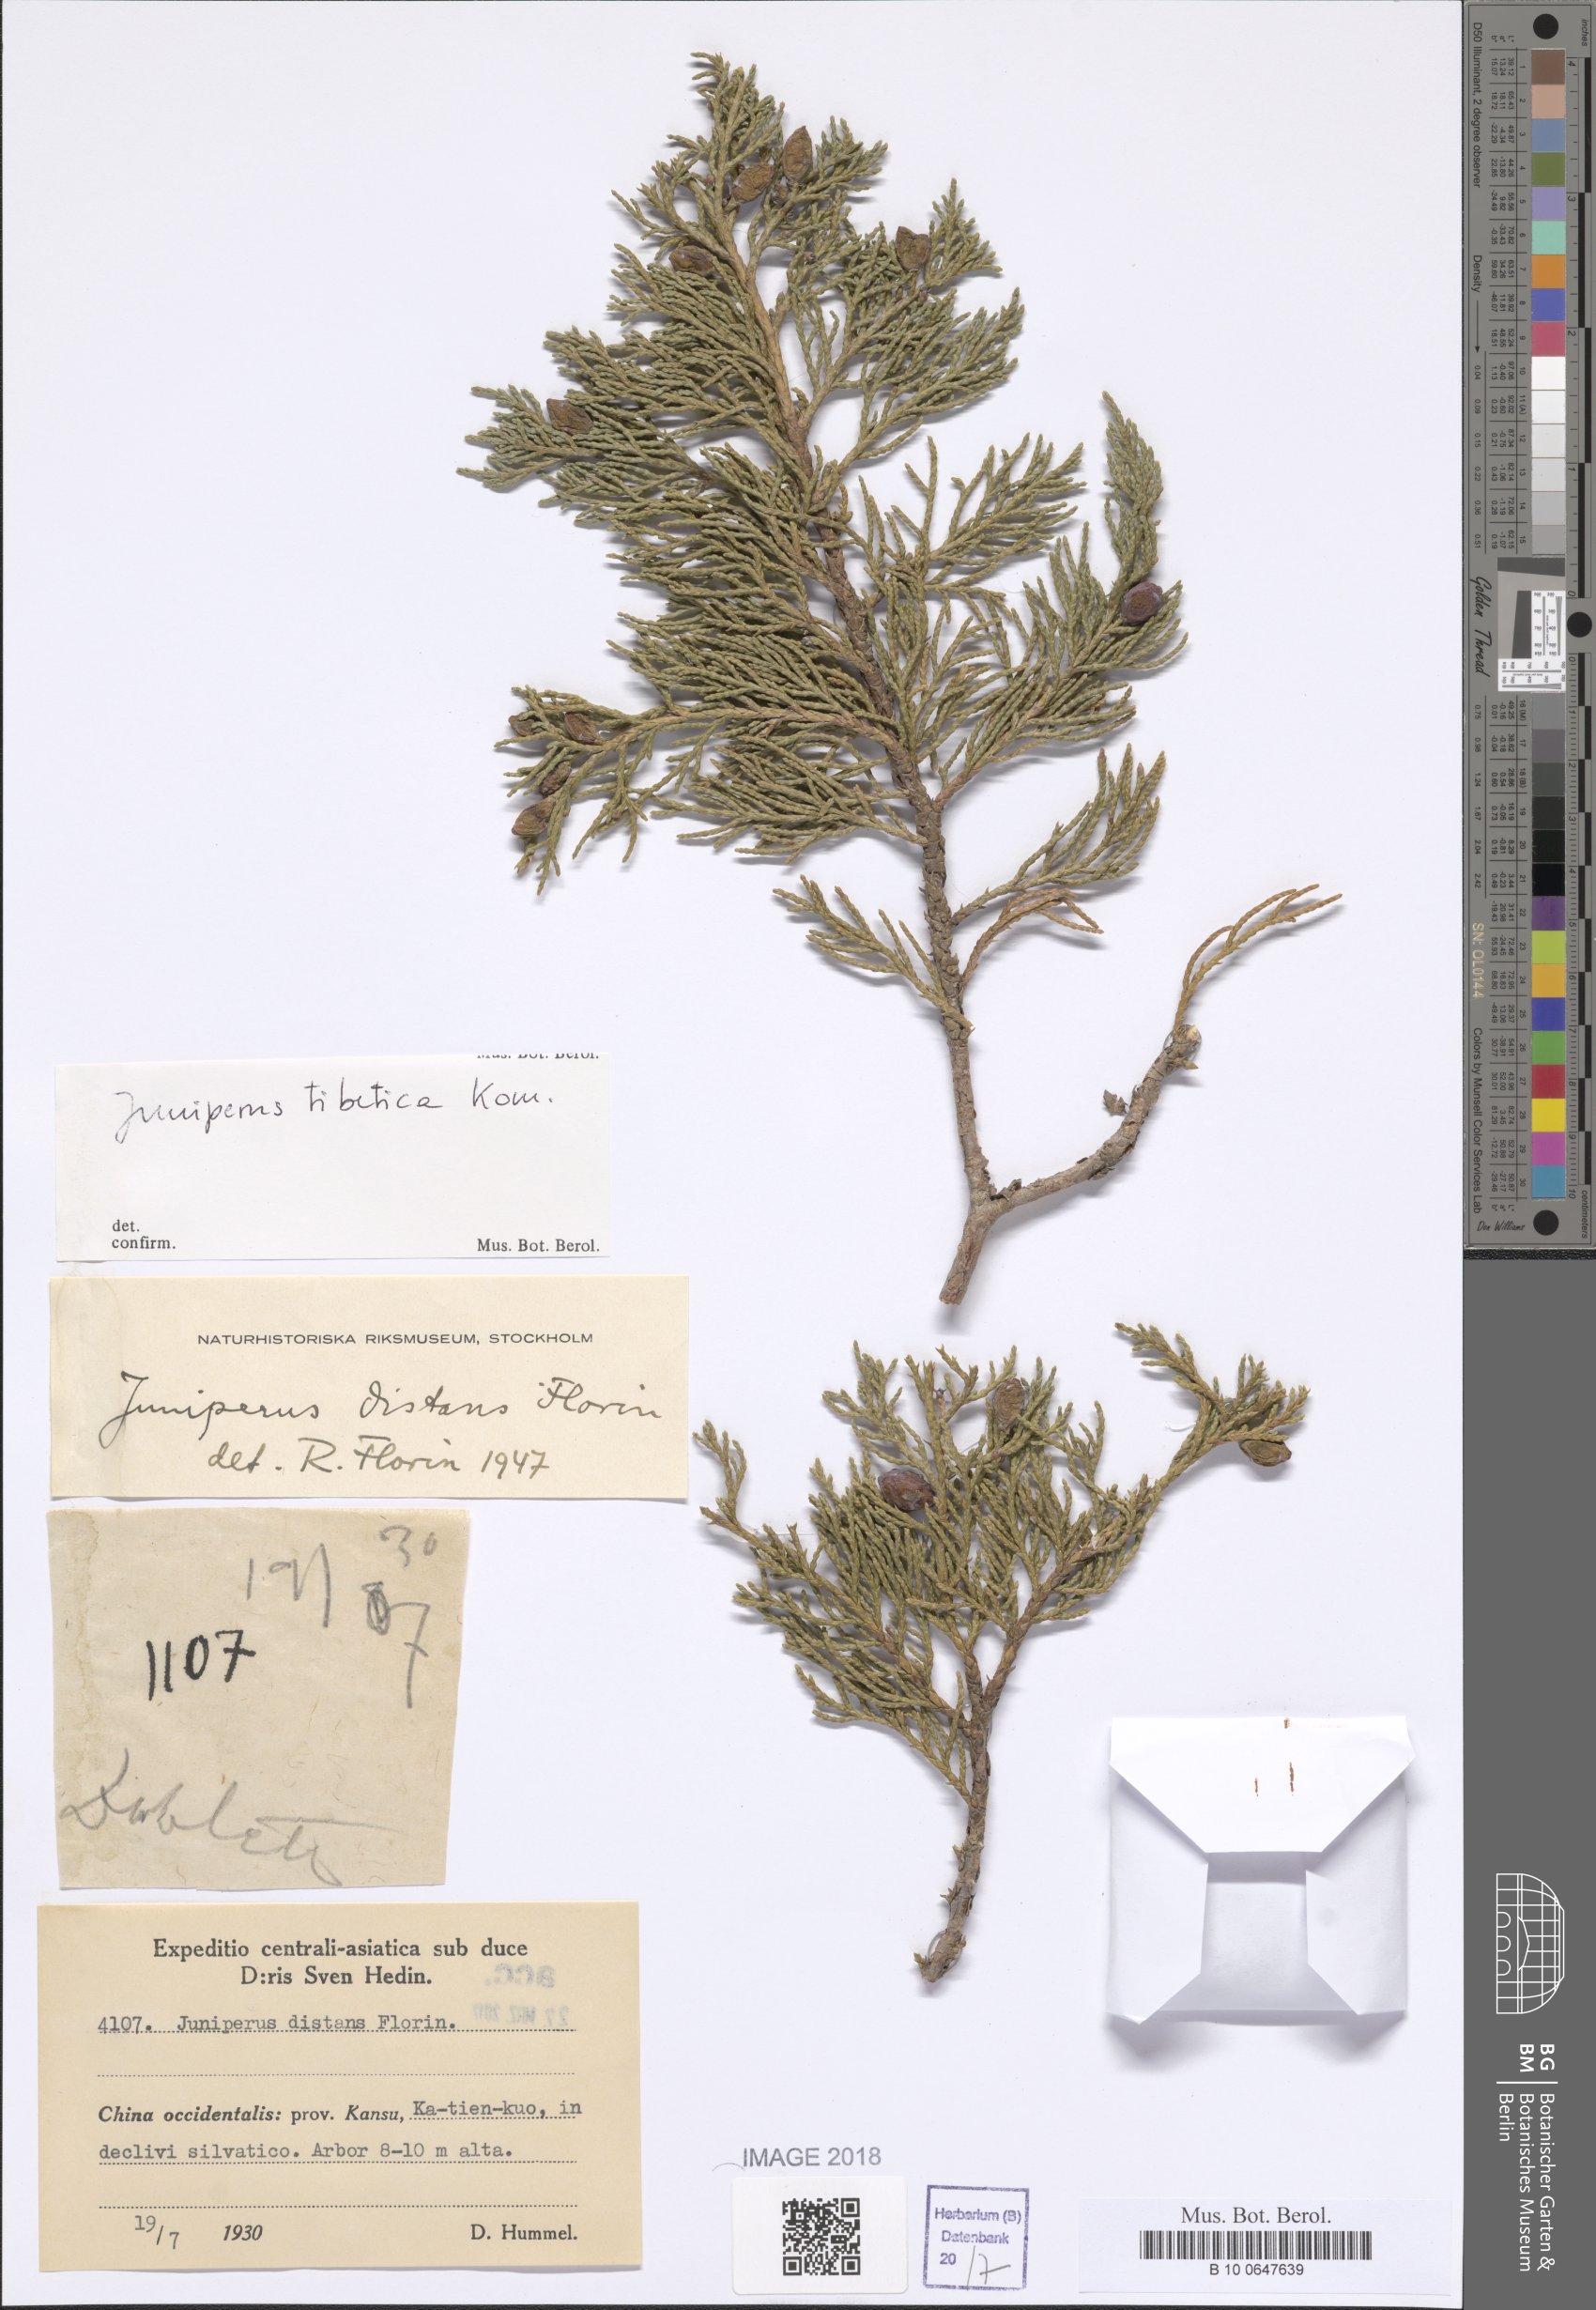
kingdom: Plantae
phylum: Tracheophyta
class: Pinopsida
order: Pinales
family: Cupressaceae
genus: Juniperus
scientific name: Juniperus tibetica
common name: Tibetan juniper
